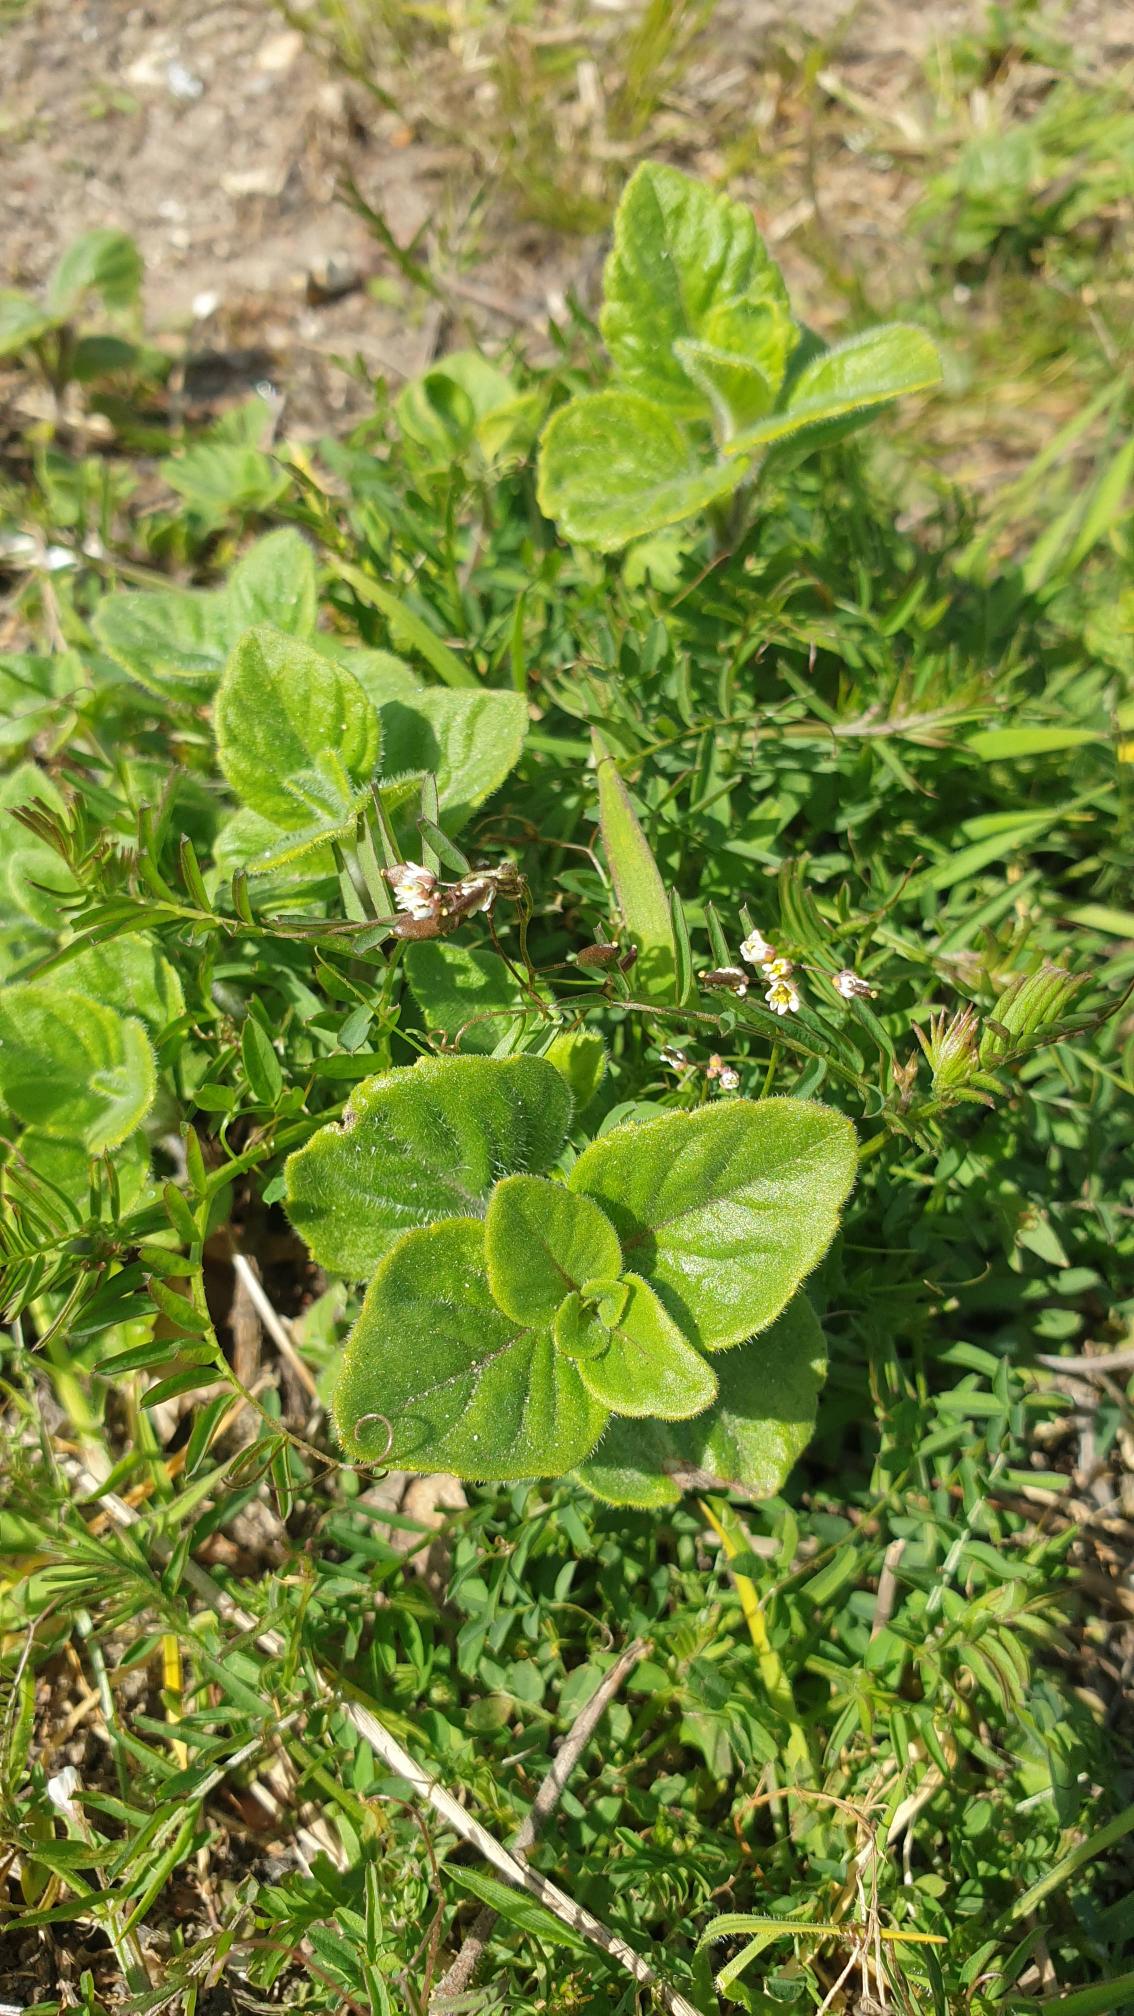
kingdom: Plantae
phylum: Tracheophyta
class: Magnoliopsida
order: Fabales
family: Fabaceae
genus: Vicia
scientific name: Vicia hirsuta
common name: Tofrøet vikke
